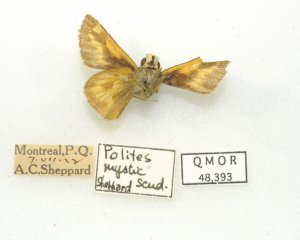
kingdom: Animalia
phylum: Arthropoda
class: Insecta
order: Lepidoptera
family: Hesperiidae
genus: Polites
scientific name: Polites
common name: Long Dash Skipper
